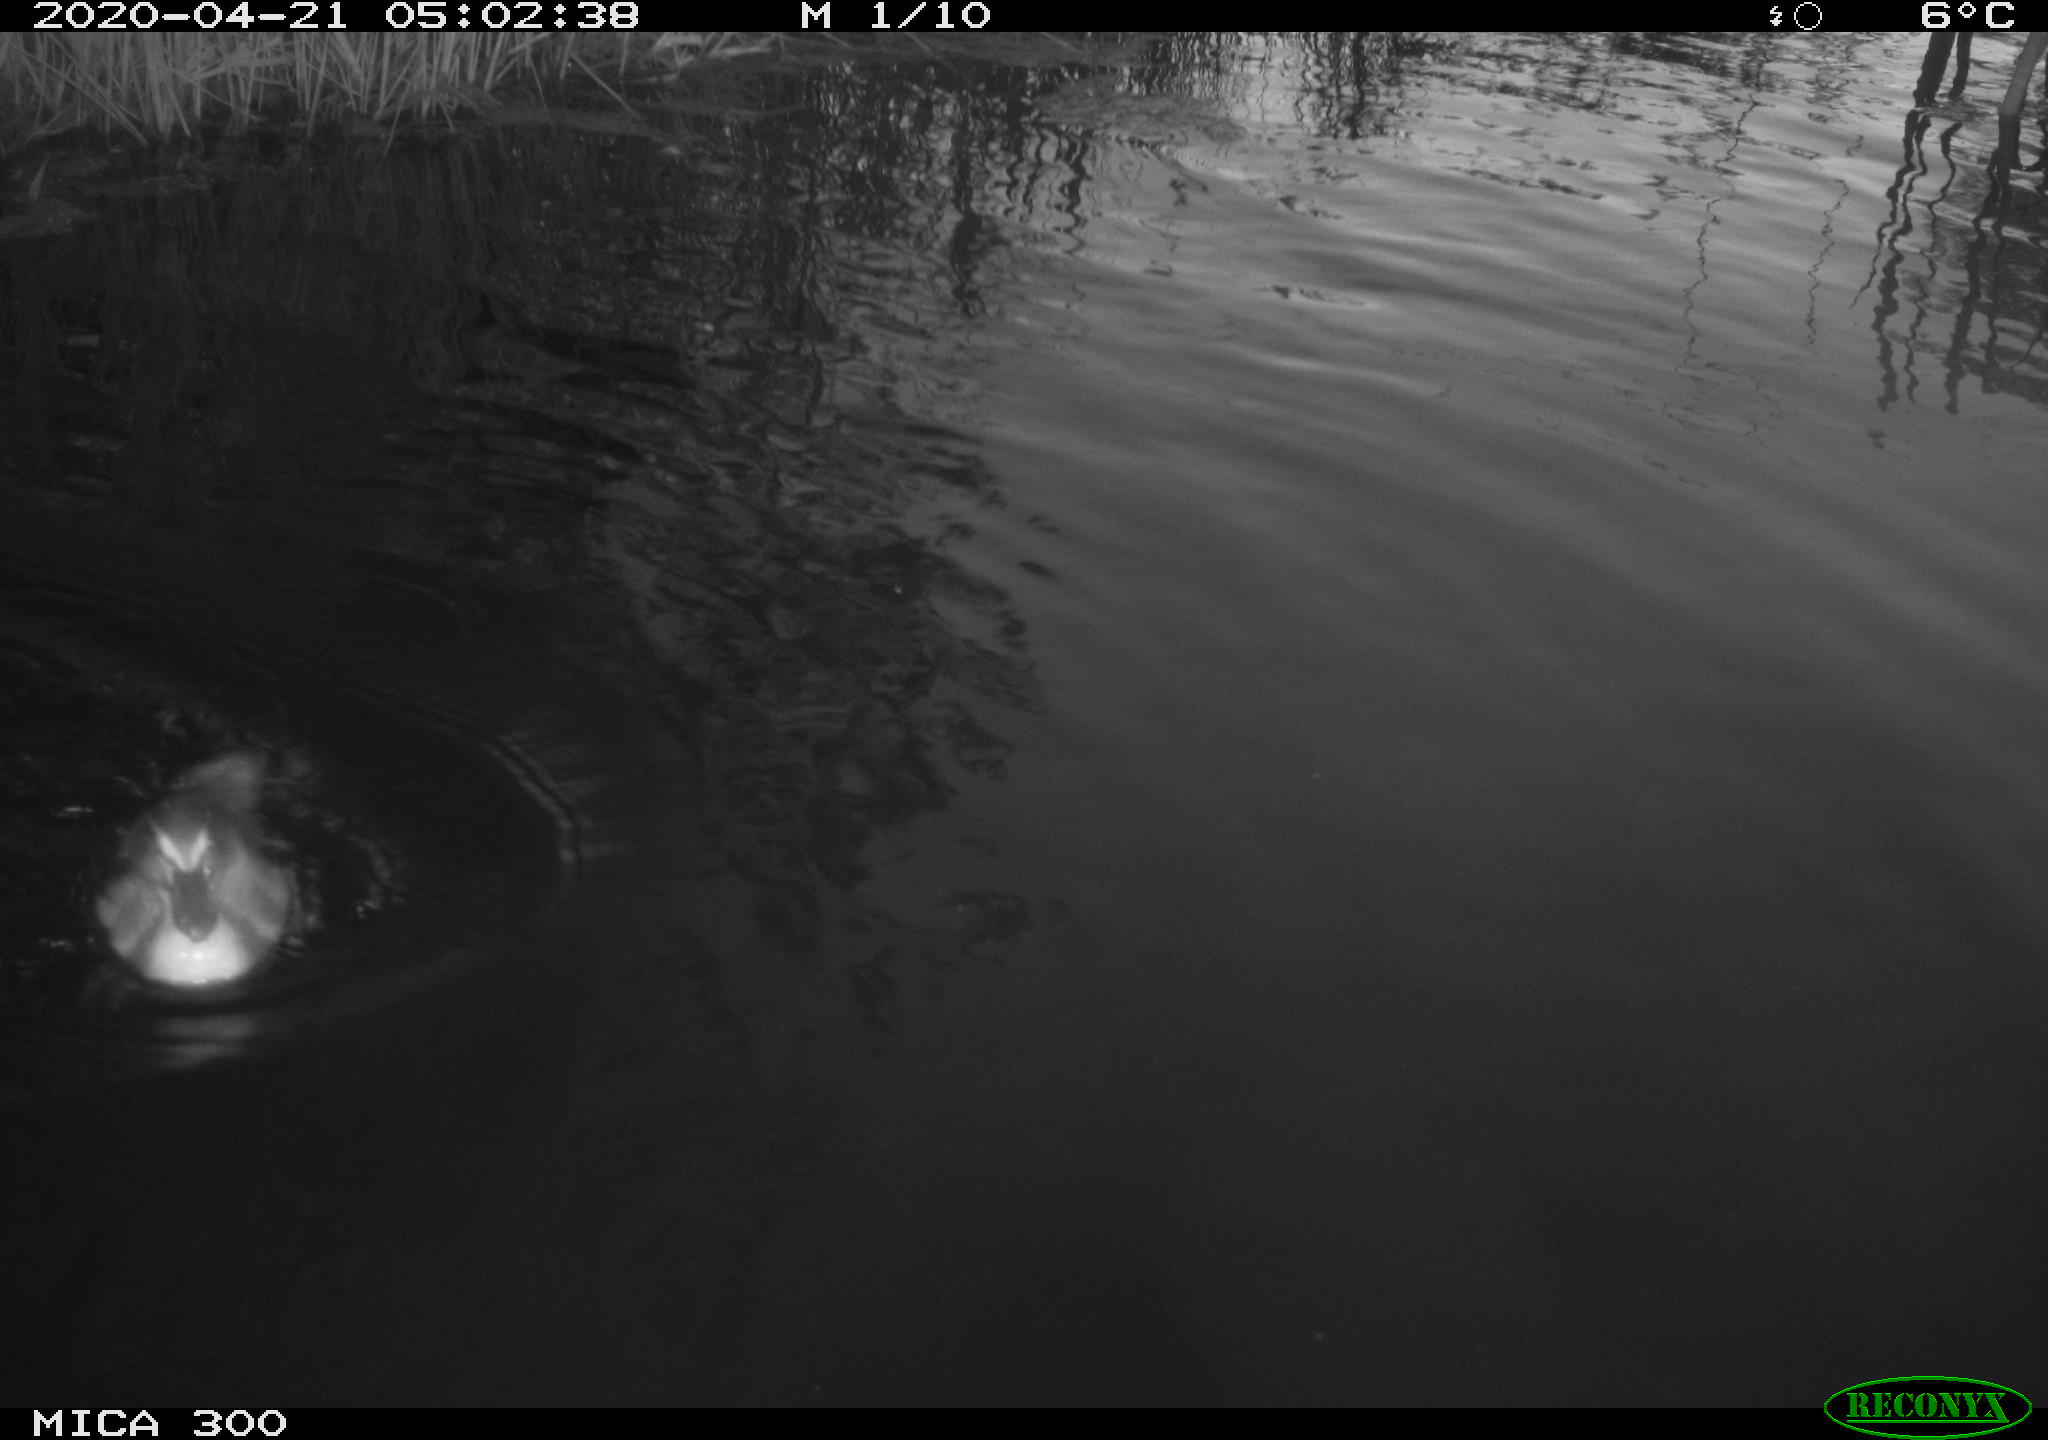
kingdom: Animalia
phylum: Chordata
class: Aves
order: Anseriformes
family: Anatidae
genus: Anas
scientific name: Anas platyrhynchos
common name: Mallard
